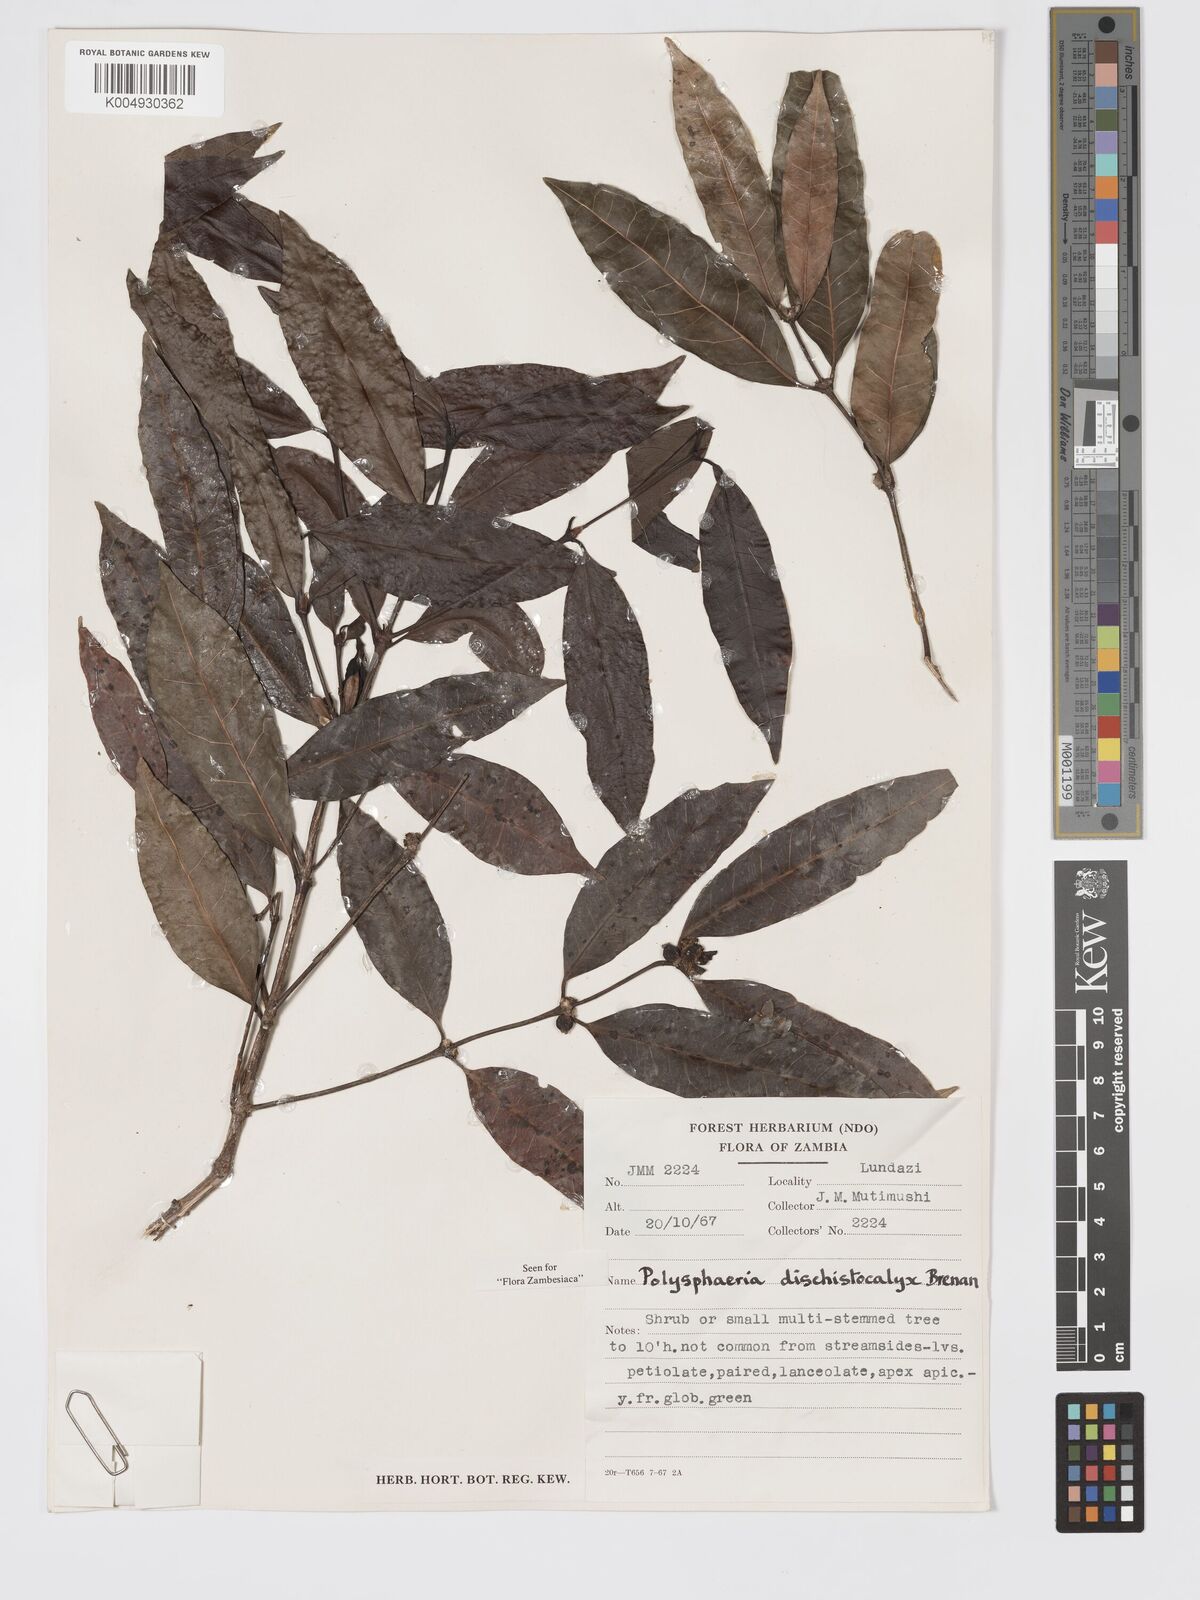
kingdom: Plantae
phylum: Tracheophyta
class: Magnoliopsida
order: Gentianales
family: Rubiaceae
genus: Polysphaeria
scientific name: Polysphaeria dischistocalyx
